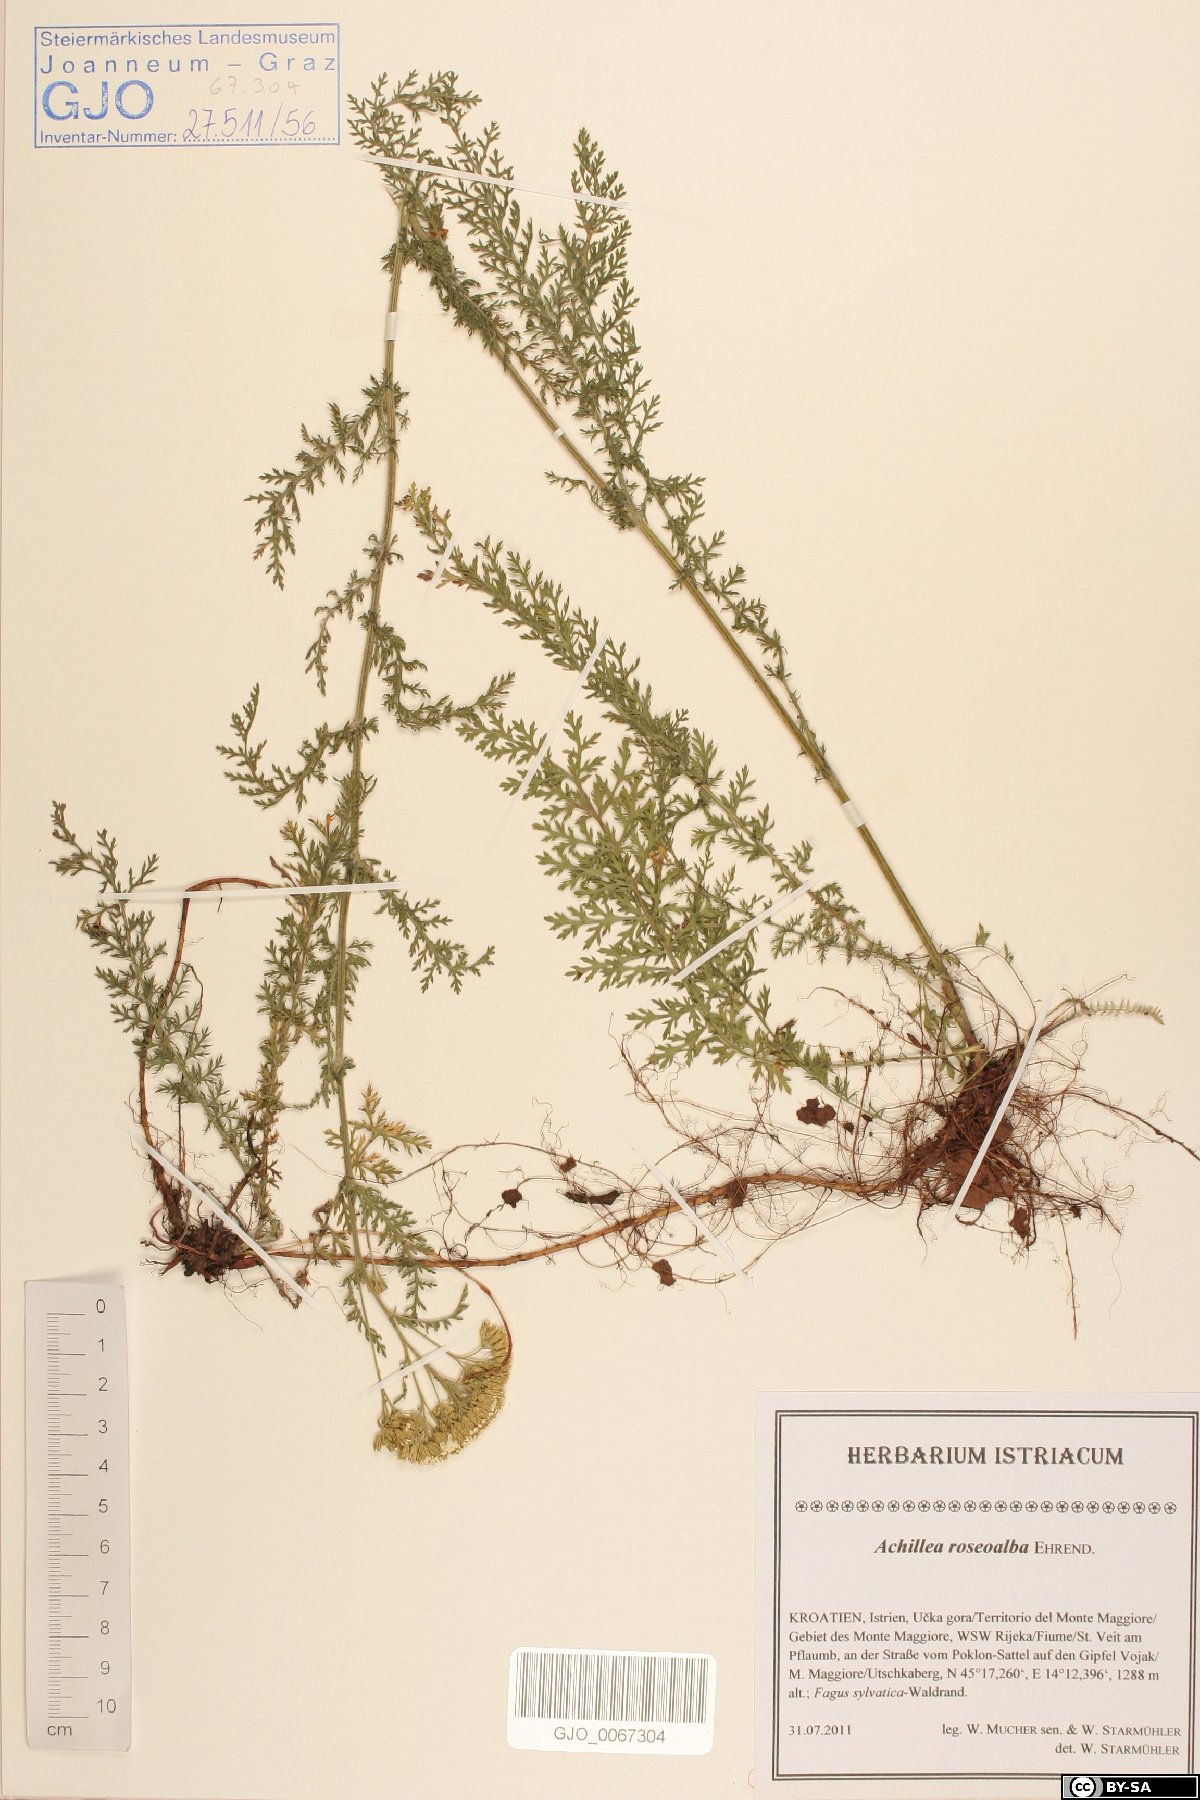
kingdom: Plantae
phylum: Tracheophyta
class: Magnoliopsida
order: Asterales
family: Asteraceae
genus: Achillea
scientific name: Achillea roseoalba
